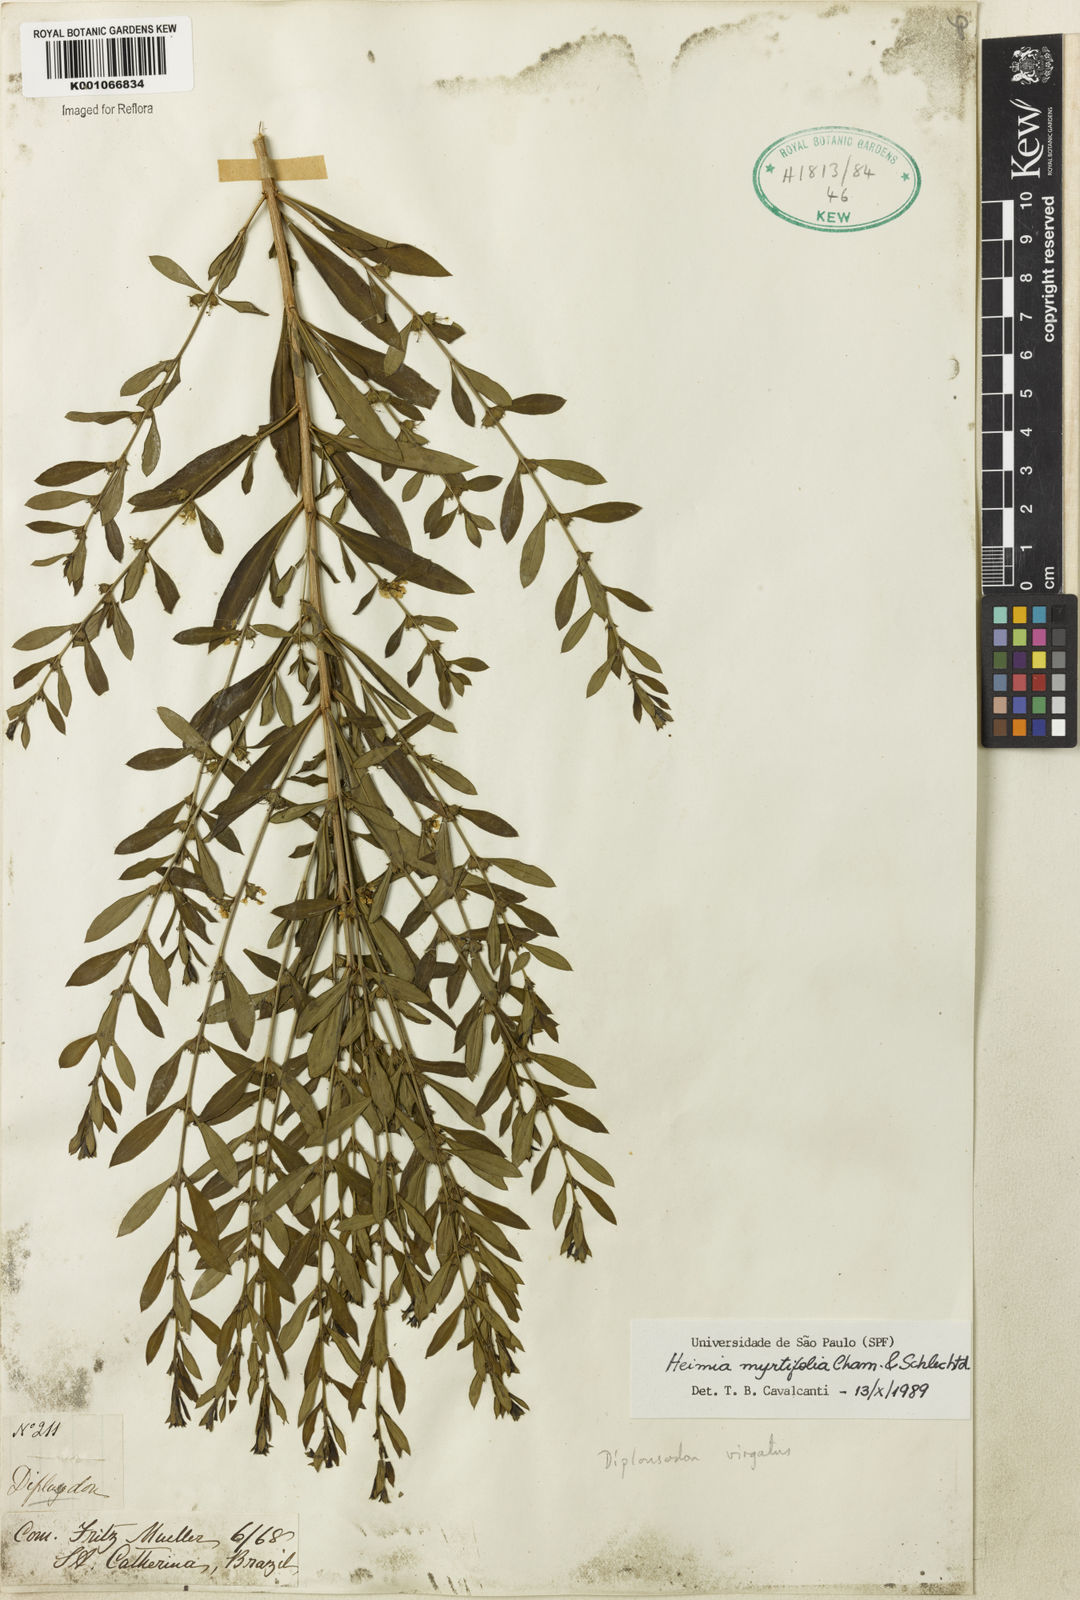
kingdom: Plantae
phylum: Tracheophyta
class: Magnoliopsida
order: Myrtales
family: Lythraceae
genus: Heimia
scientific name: Heimia apetala
